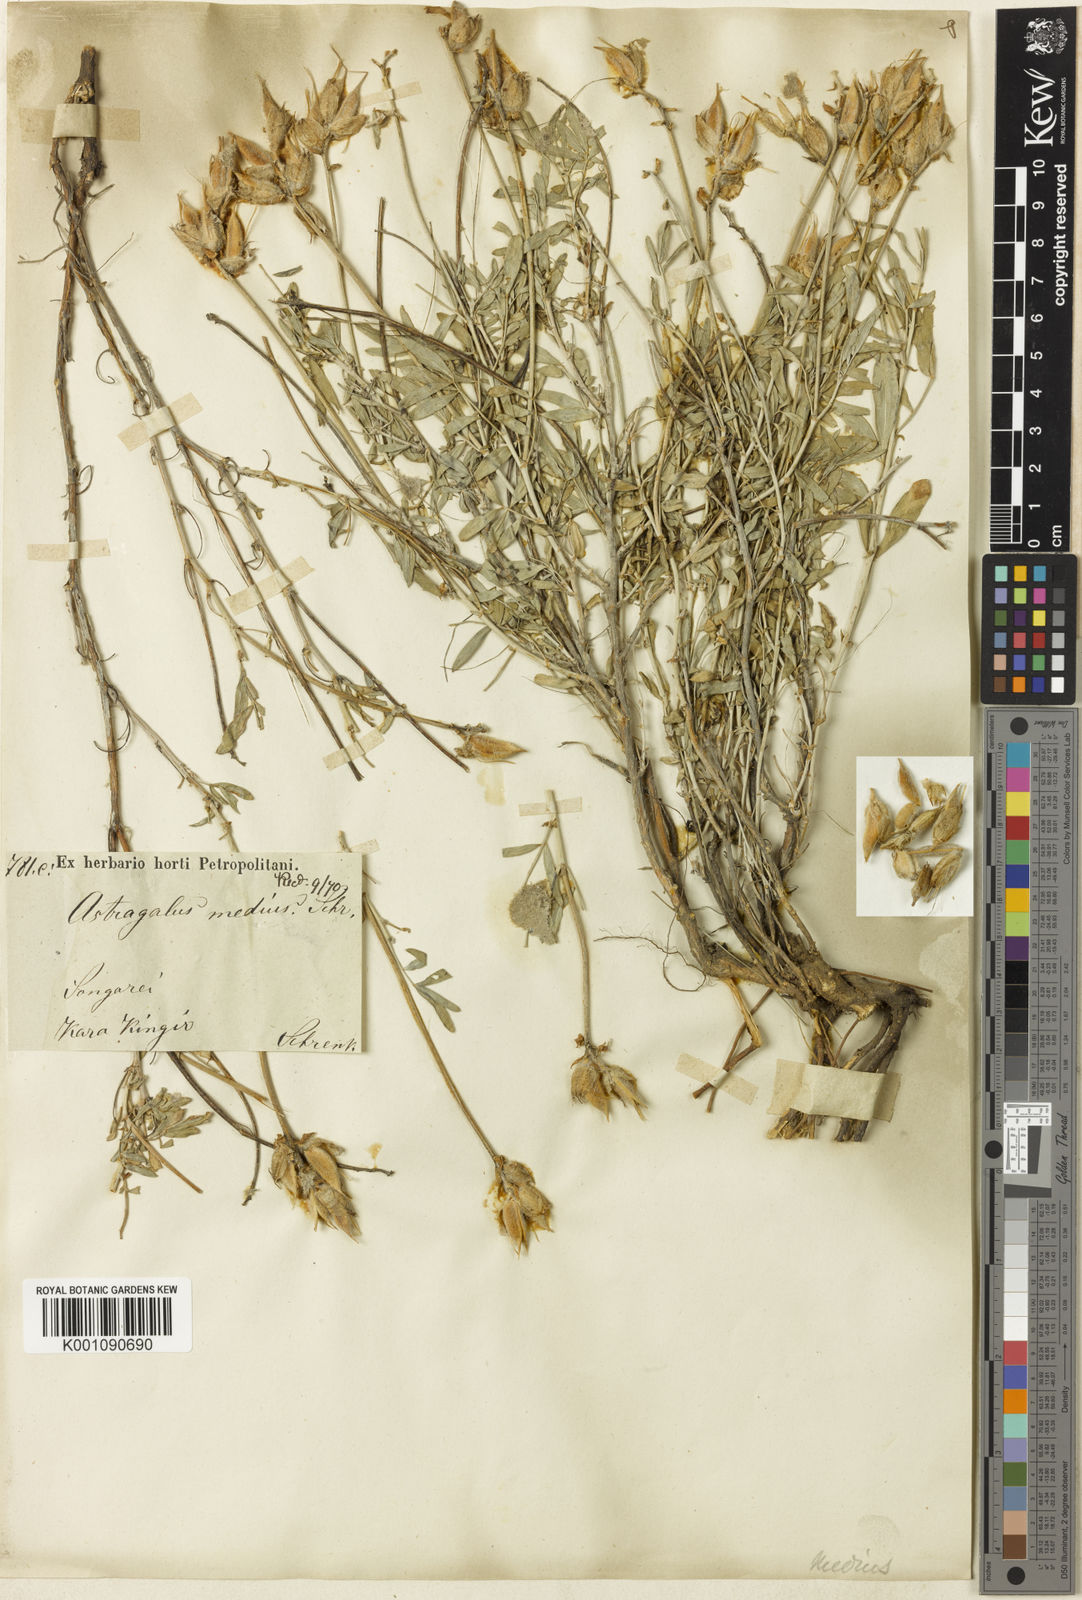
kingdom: Plantae
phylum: Tracheophyta
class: Magnoliopsida
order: Fabales
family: Fabaceae
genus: Astragalus
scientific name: Astragalus
